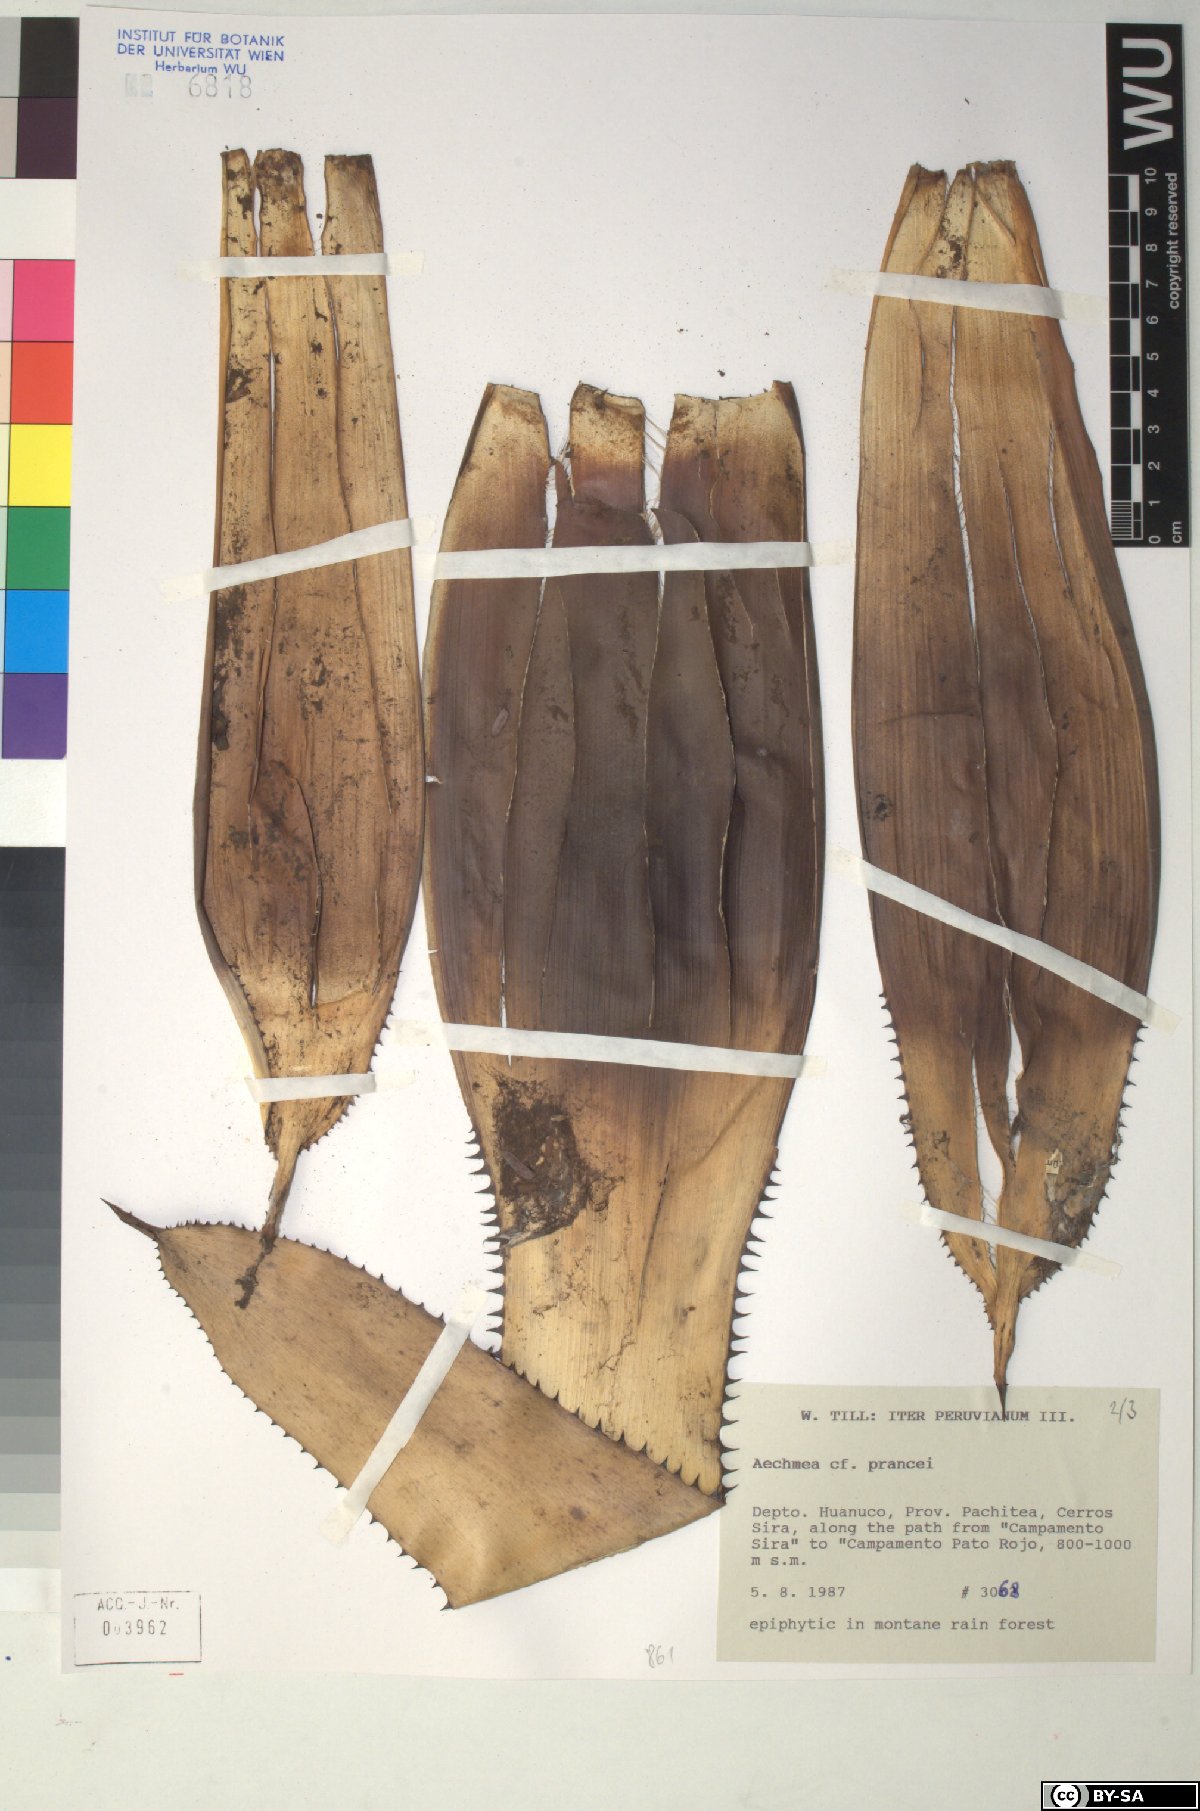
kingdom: Plantae
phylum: Tracheophyta
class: Liliopsida
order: Poales
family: Bromeliaceae
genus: Aechmea
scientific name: Aechmea prancei
